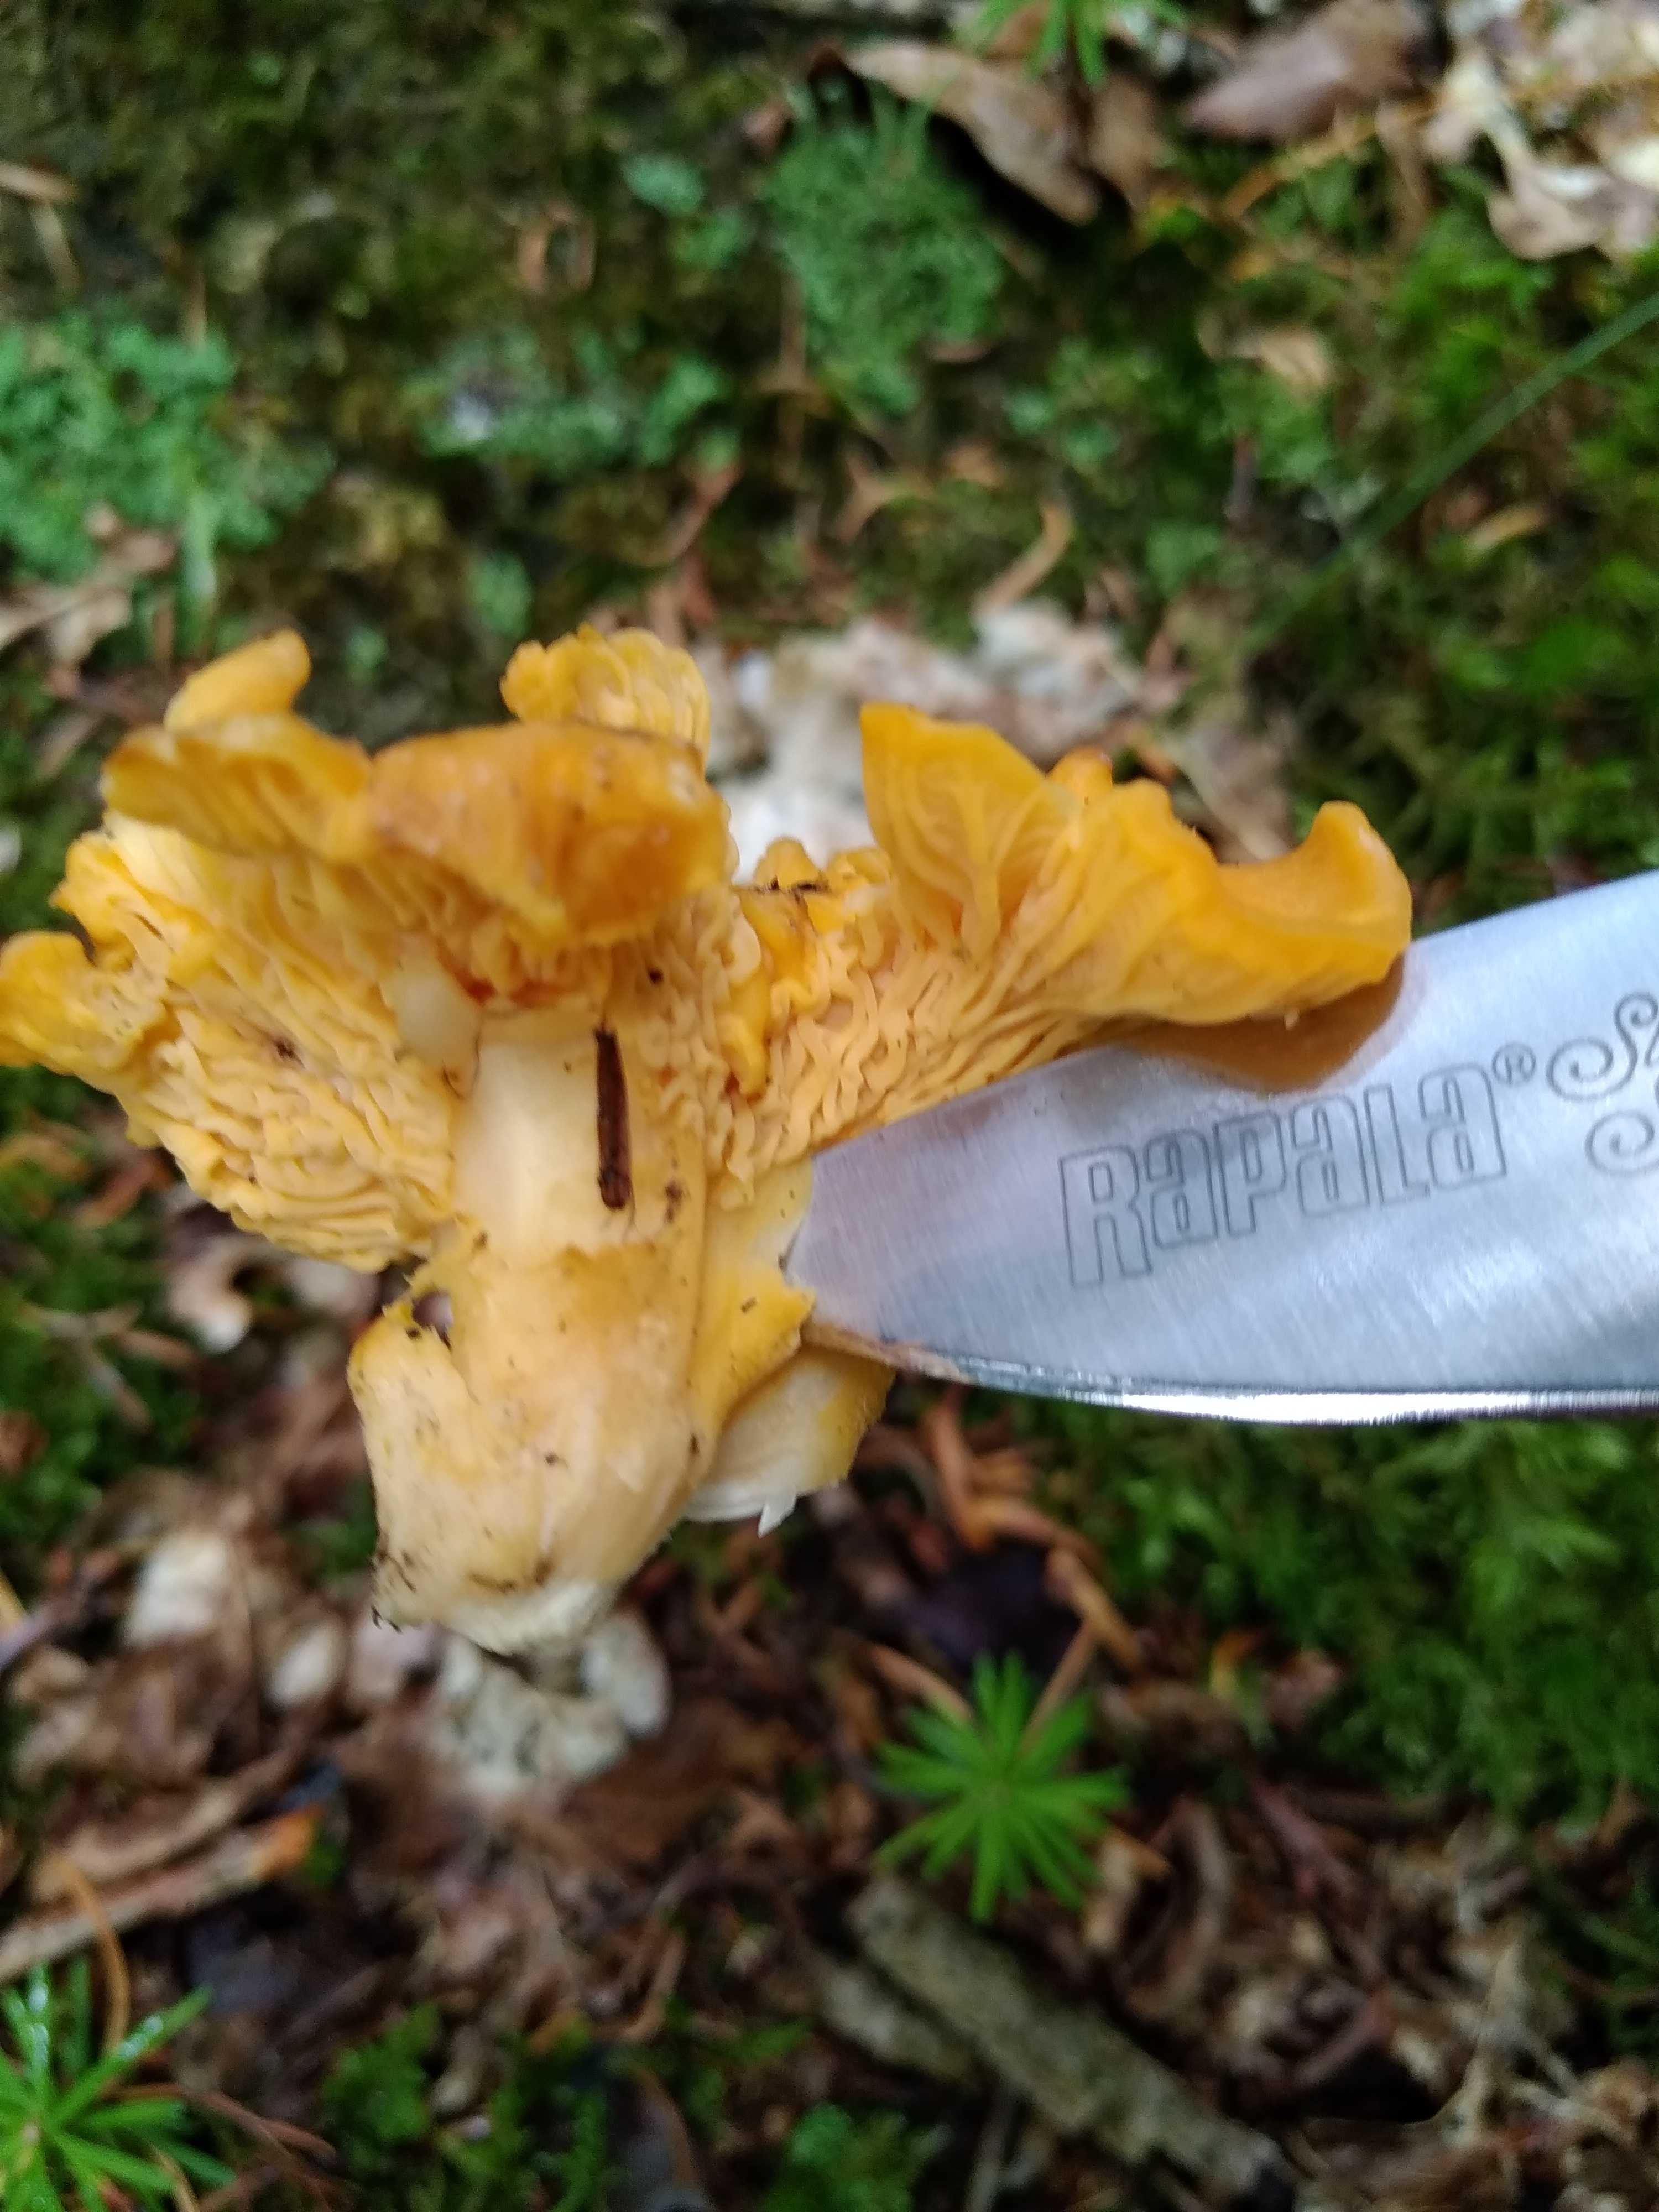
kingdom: Fungi
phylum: Basidiomycota
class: Agaricomycetes
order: Cantharellales
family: Hydnaceae
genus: Cantharellus
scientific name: Cantharellus cibarius
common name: almindelig kantarel
